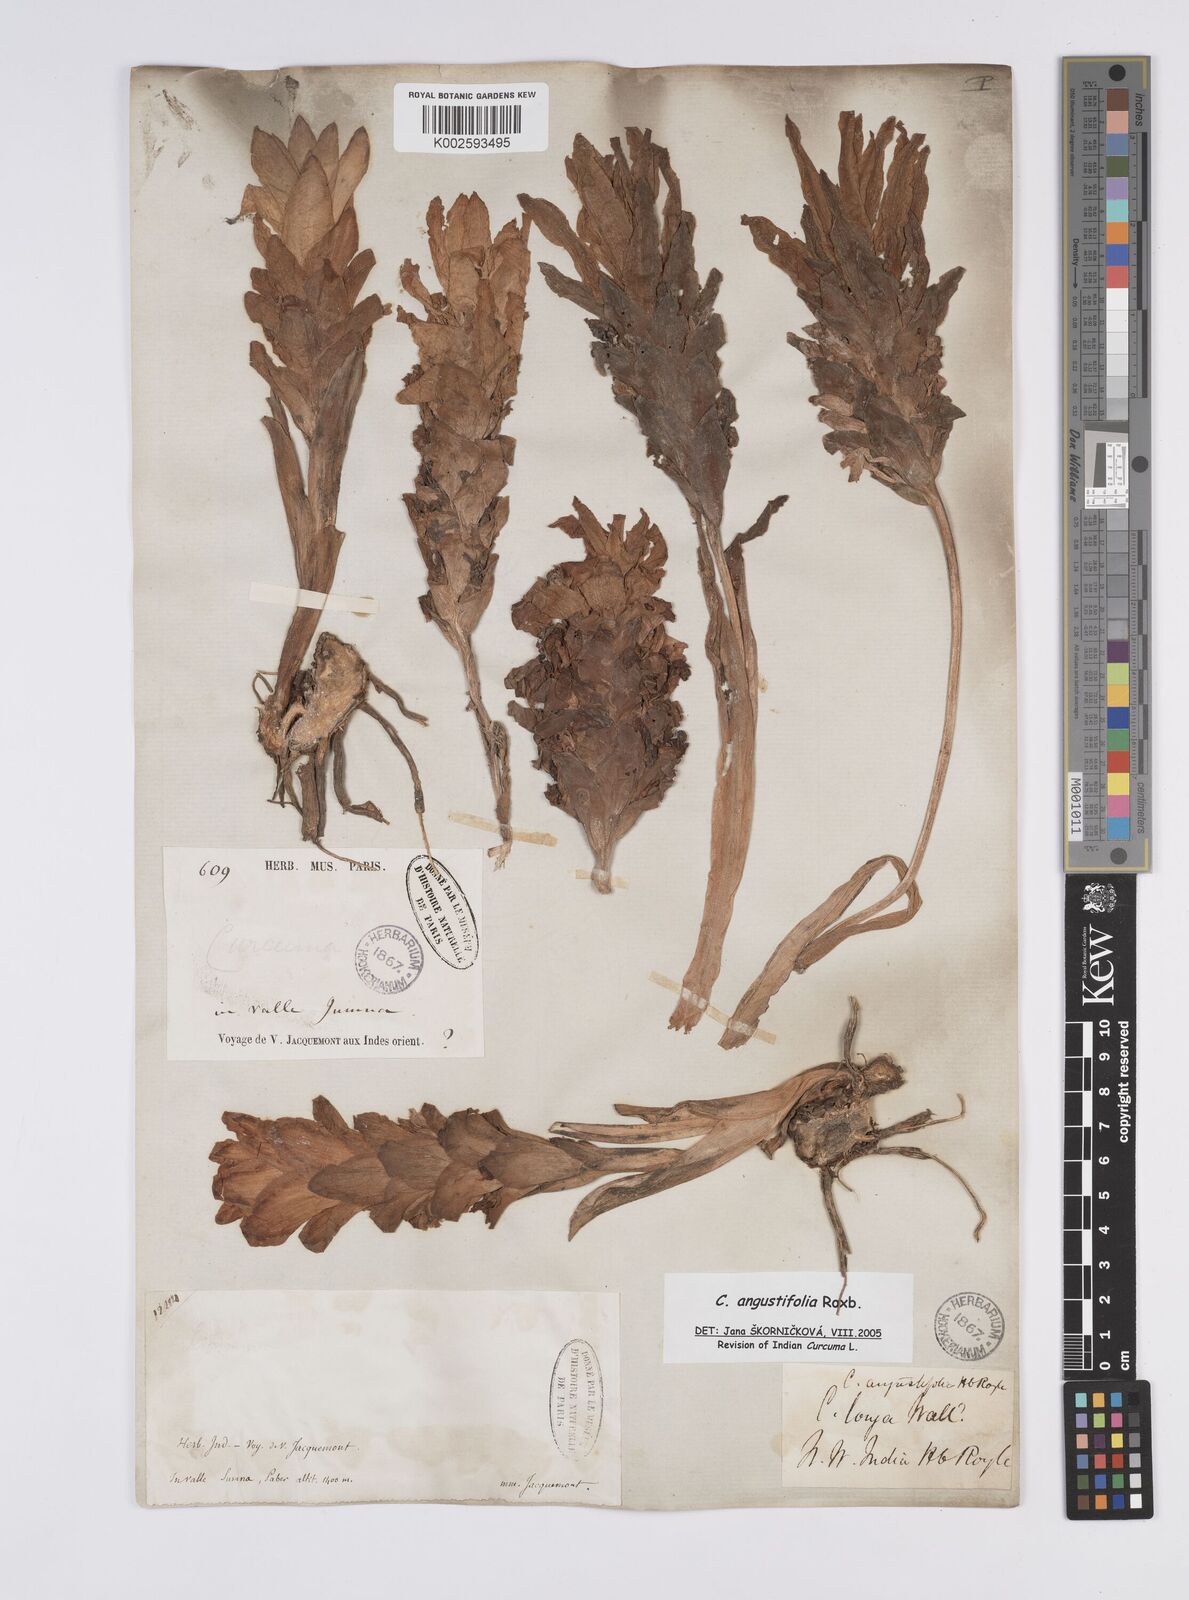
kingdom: Plantae
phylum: Tracheophyta
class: Liliopsida
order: Zingiberales
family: Zingiberaceae
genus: Curcuma
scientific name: Curcuma angustifolia
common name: East indian arrowroot
